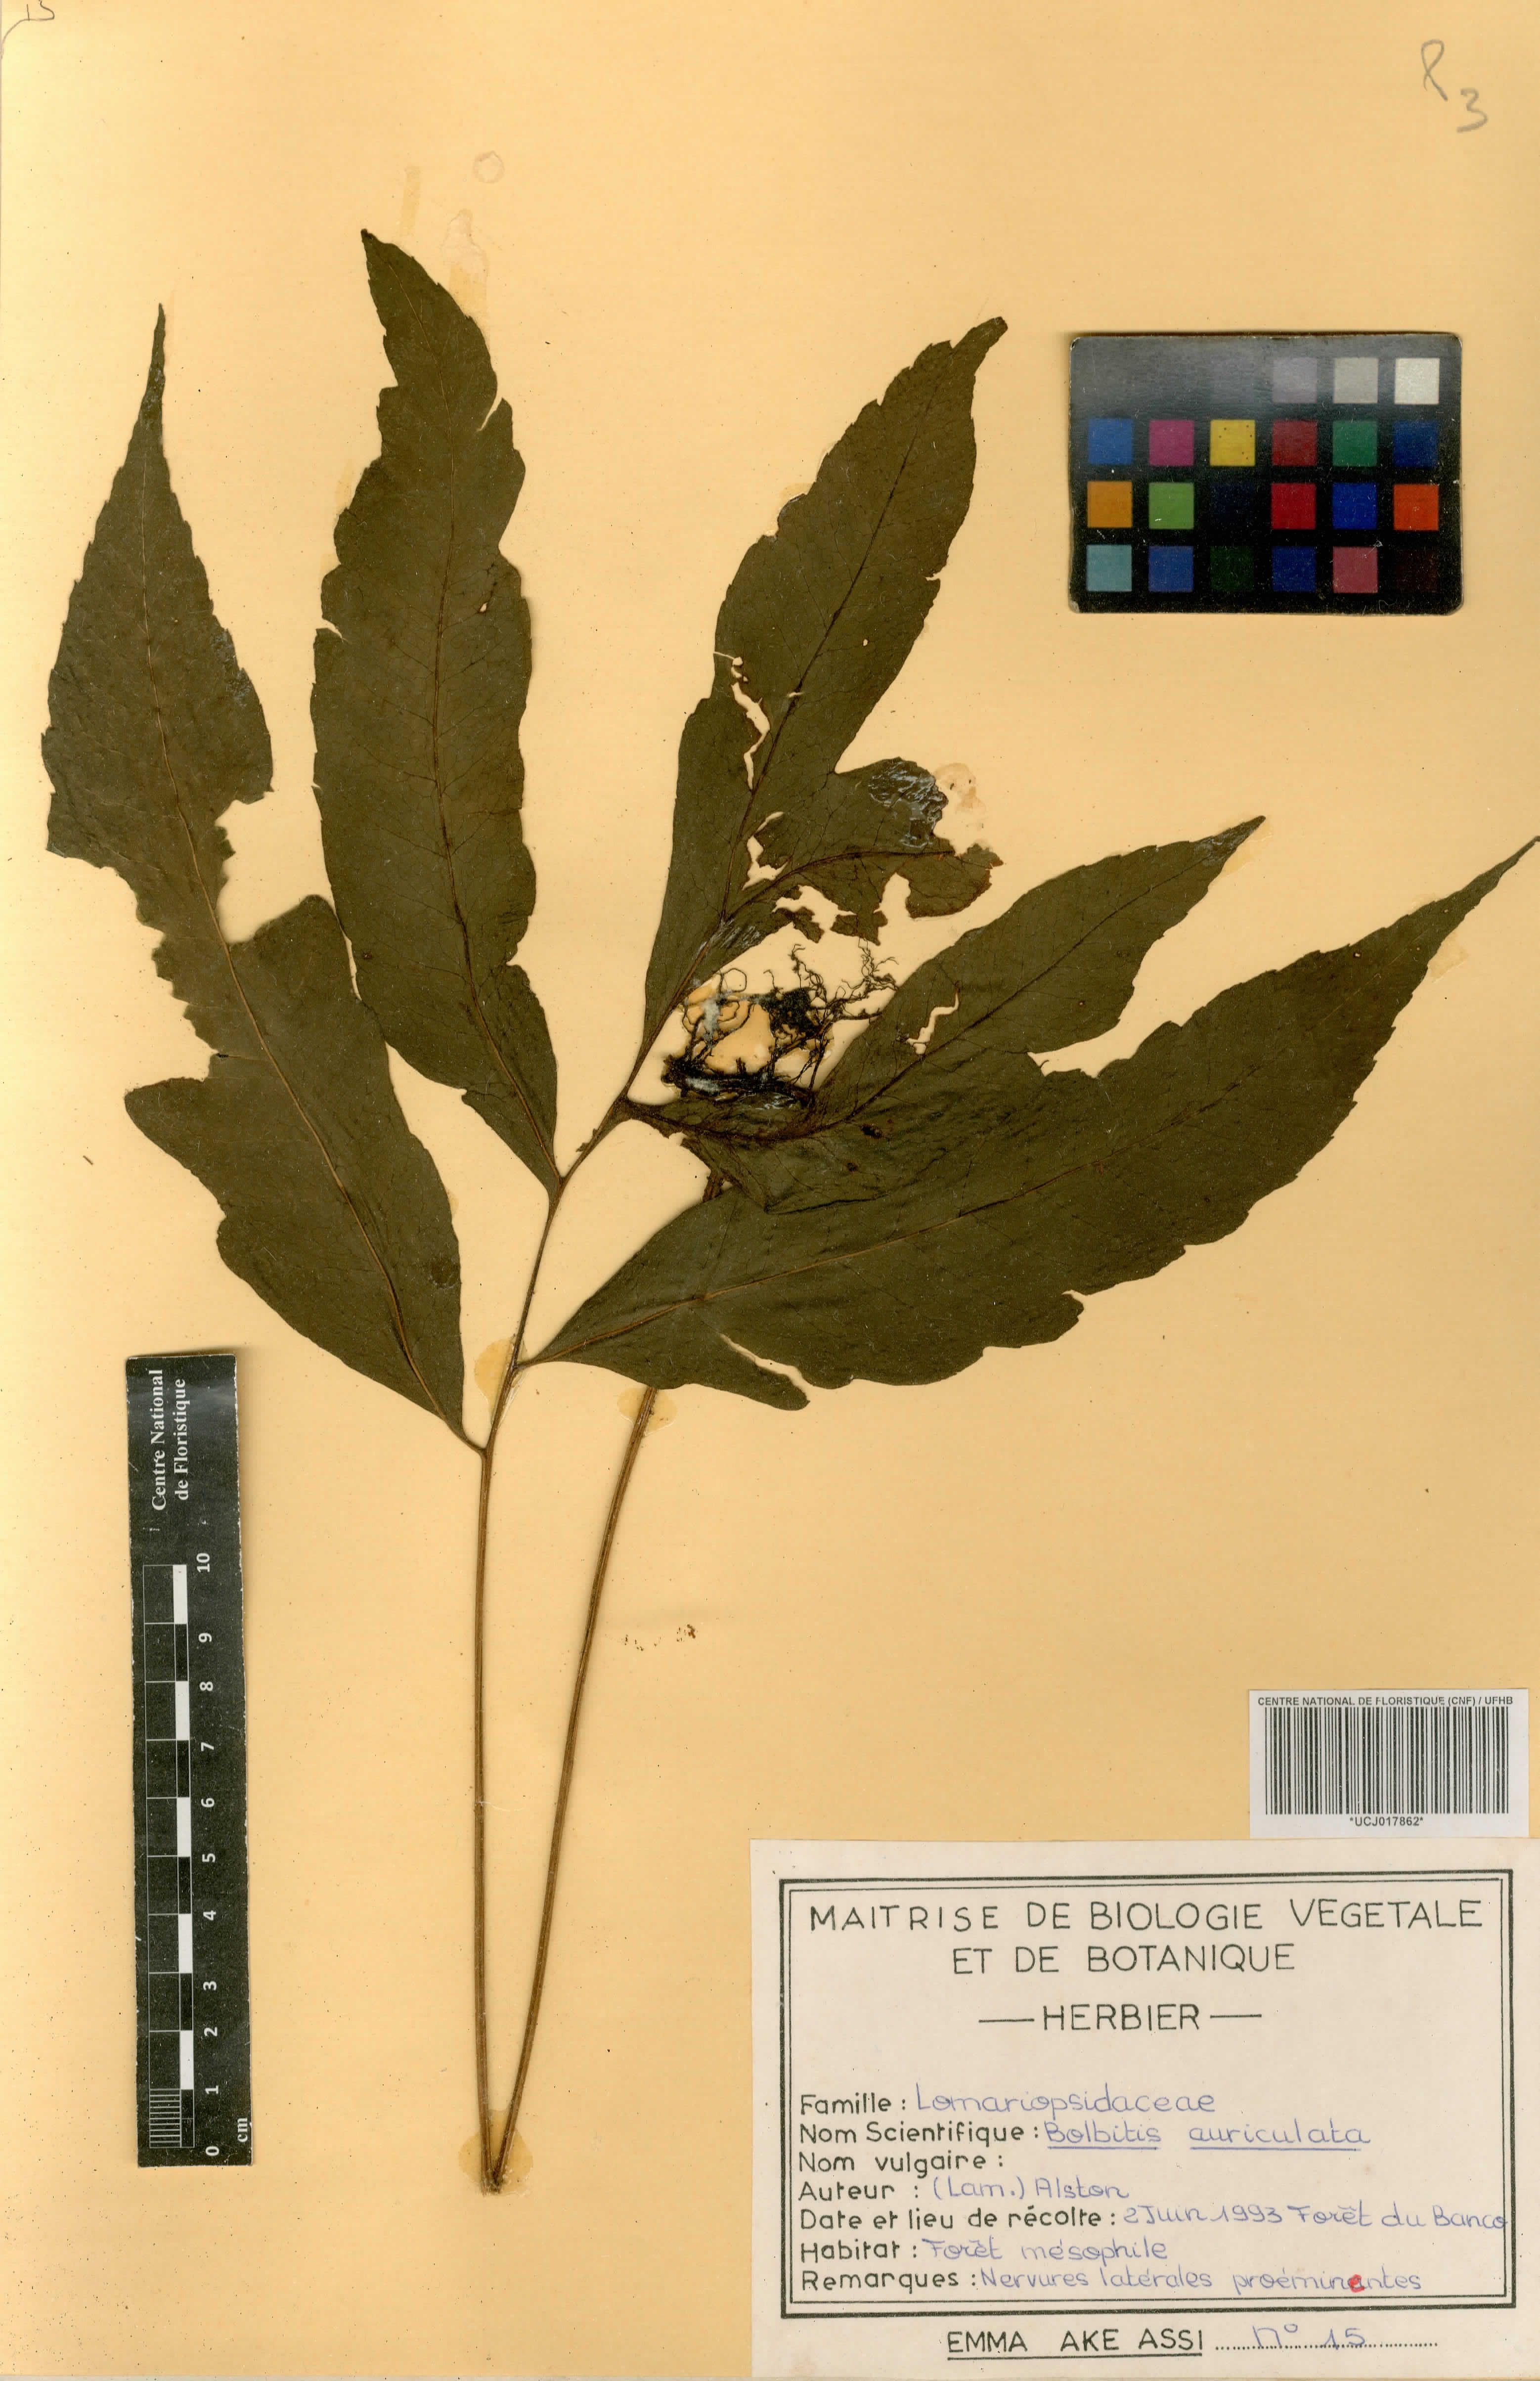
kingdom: Plantae
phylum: Tracheophyta
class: Polypodiopsida
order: Polypodiales
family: Dryopteridaceae
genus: Bolbitis
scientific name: Bolbitis auriculata
